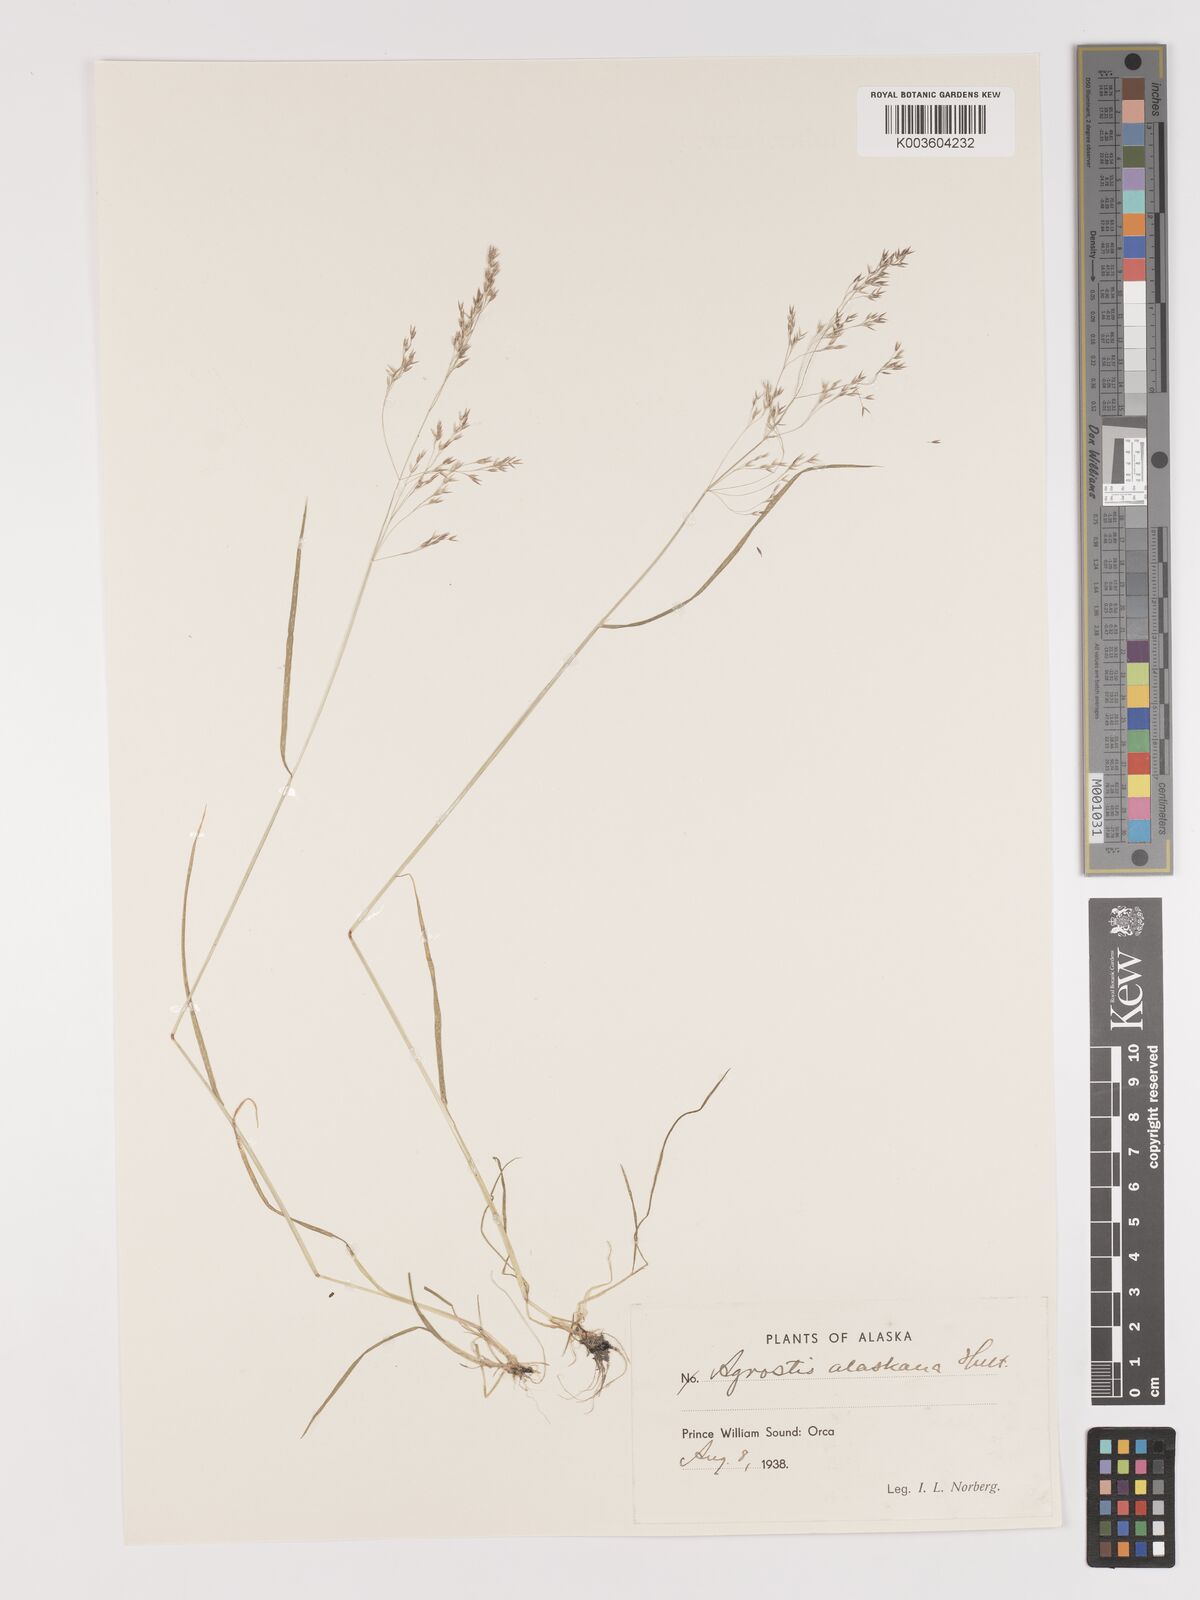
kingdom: Plantae
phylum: Tracheophyta
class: Liliopsida
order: Poales
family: Poaceae
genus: Agrostis
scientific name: Agrostis exarata
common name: Spike bent
